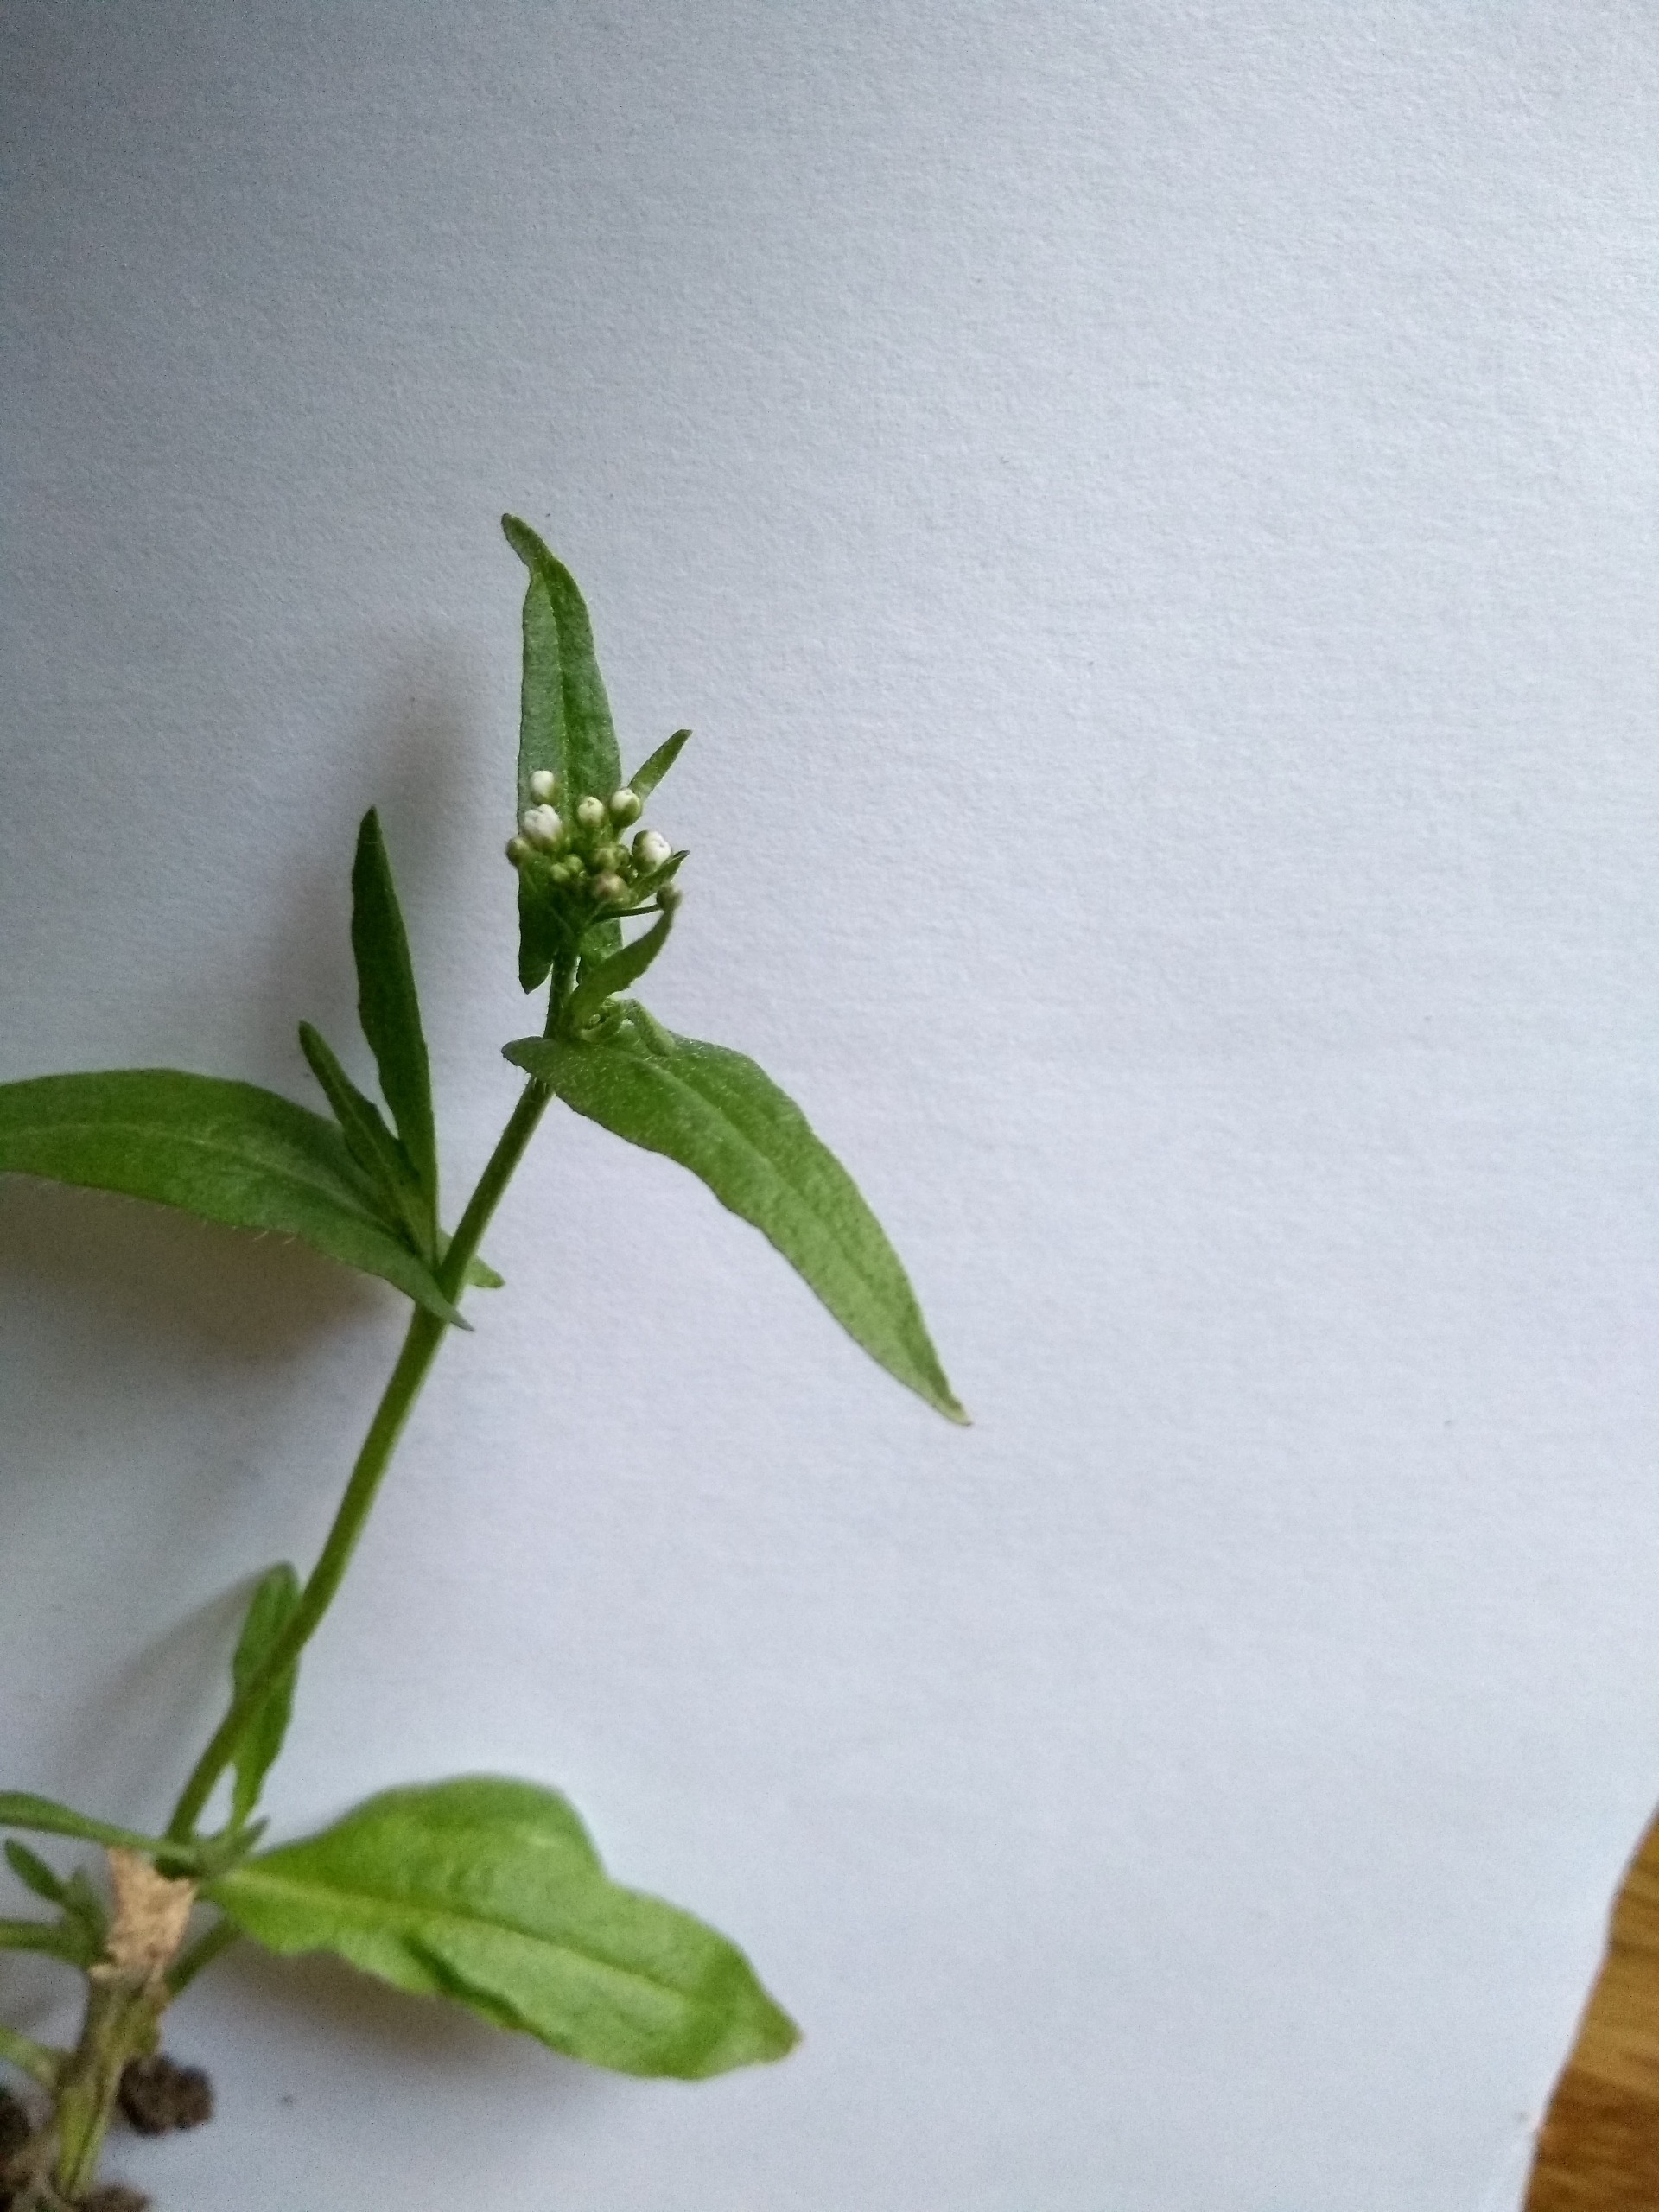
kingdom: Plantae
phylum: Tracheophyta
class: Magnoliopsida
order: Brassicales
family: Brassicaceae
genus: Capsella
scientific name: Capsella bursa-pastoris
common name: Hyrdetaske
